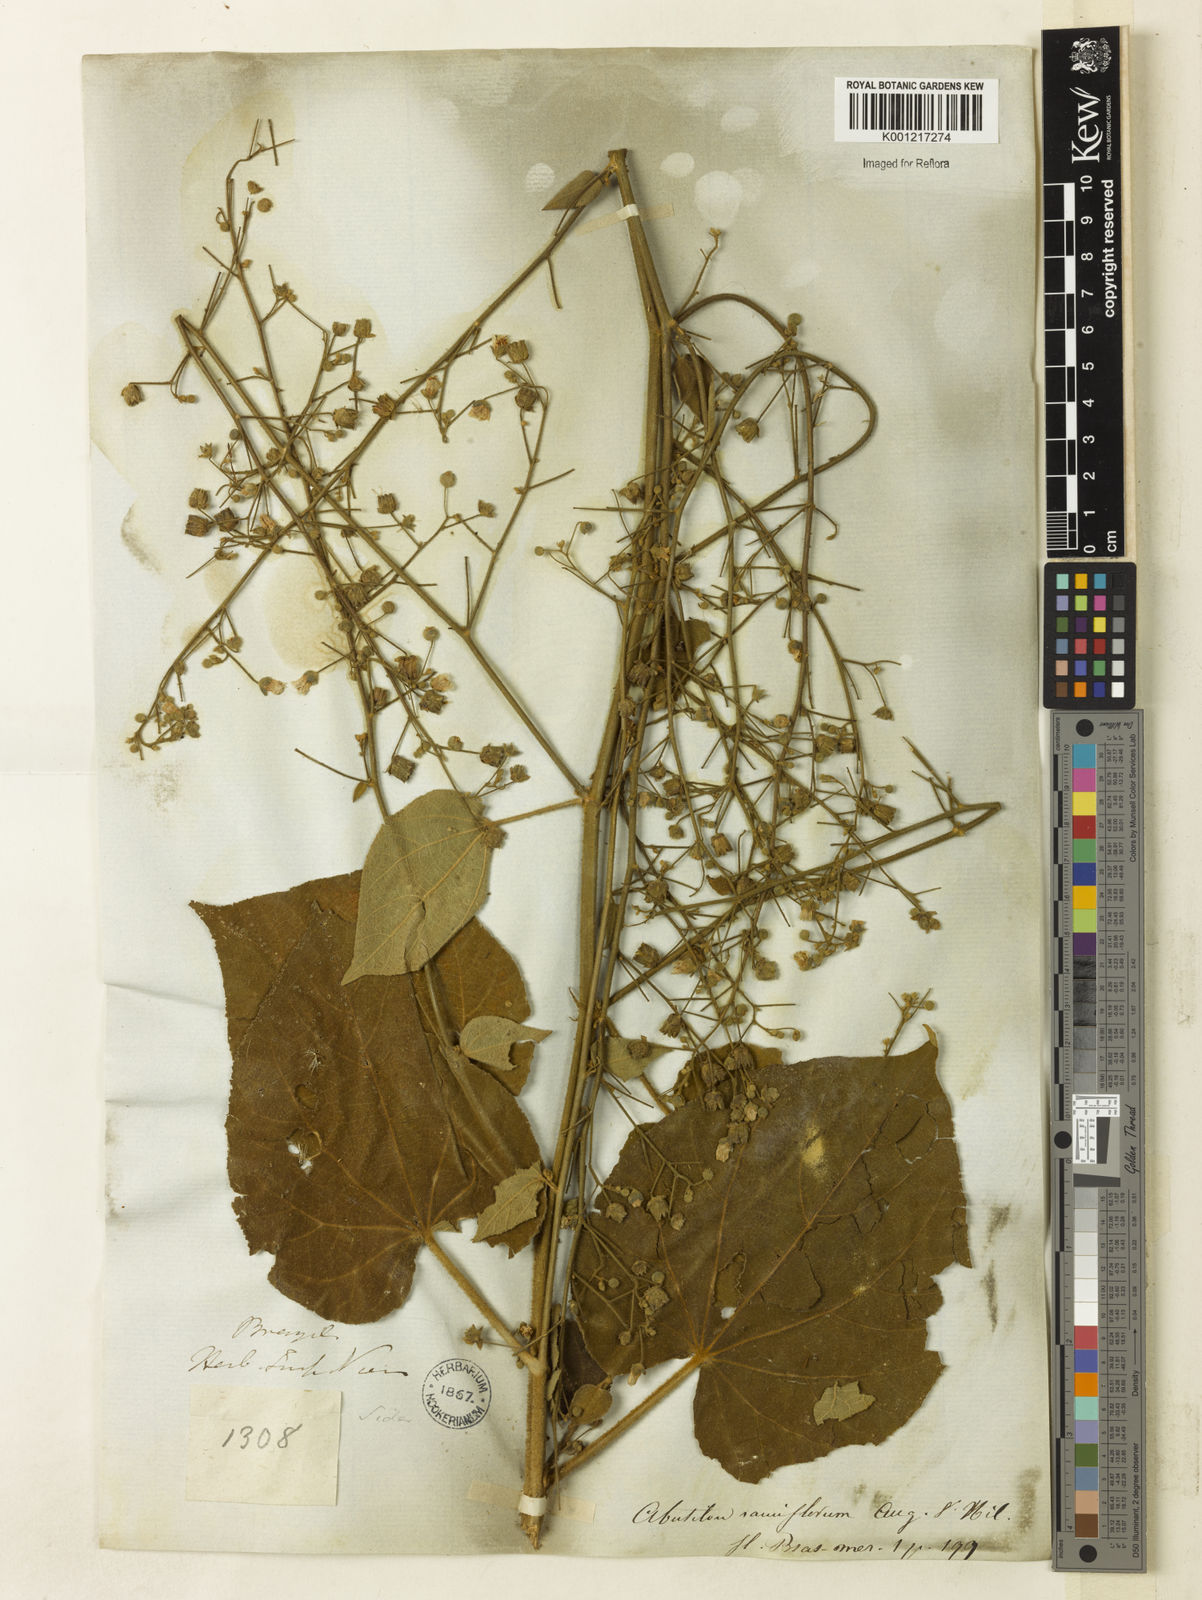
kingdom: Plantae
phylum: Tracheophyta
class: Magnoliopsida
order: Malvales
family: Malvaceae
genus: Abutilon
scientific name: Abutilon ramiflorum
